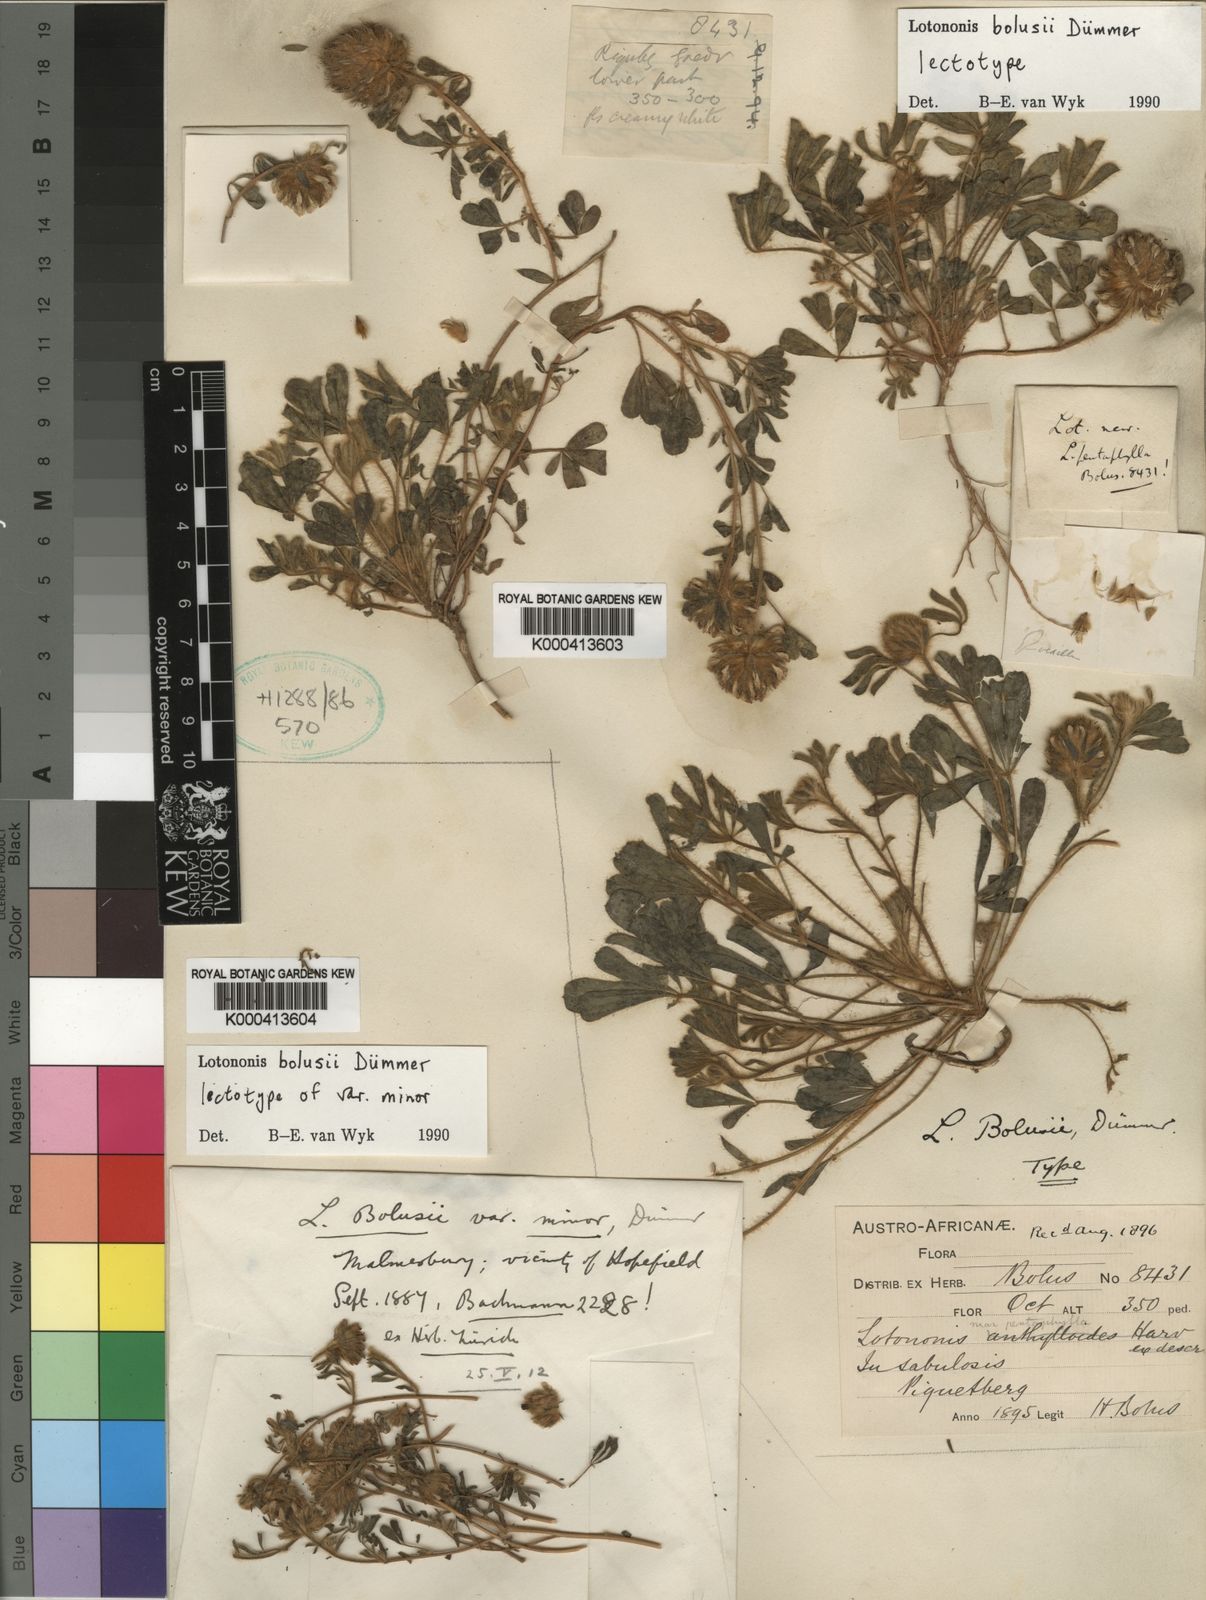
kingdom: Plantae
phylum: Tracheophyta
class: Magnoliopsida
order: Fabales
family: Fabaceae
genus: Leobordea
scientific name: Leobordea lanata
